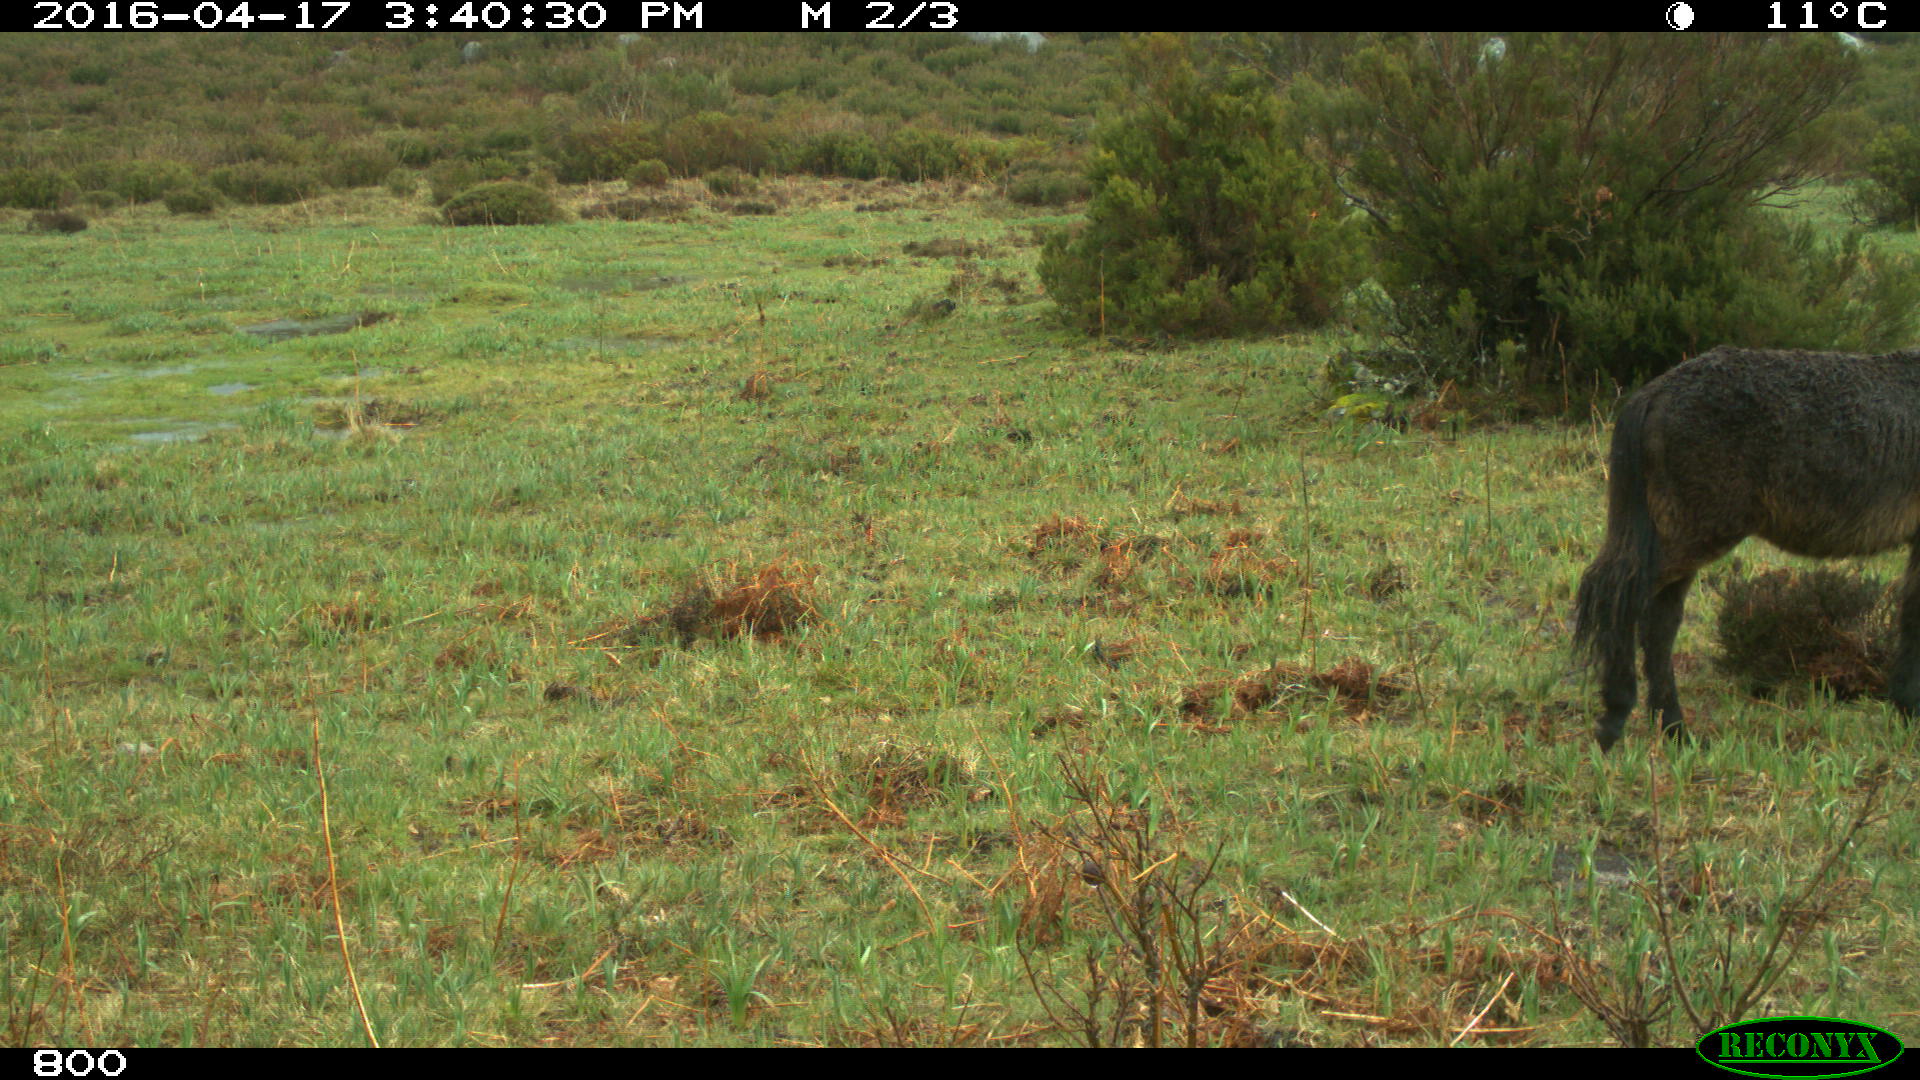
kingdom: Animalia
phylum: Chordata
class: Mammalia
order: Perissodactyla
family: Equidae
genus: Equus
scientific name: Equus caballus
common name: Horse
